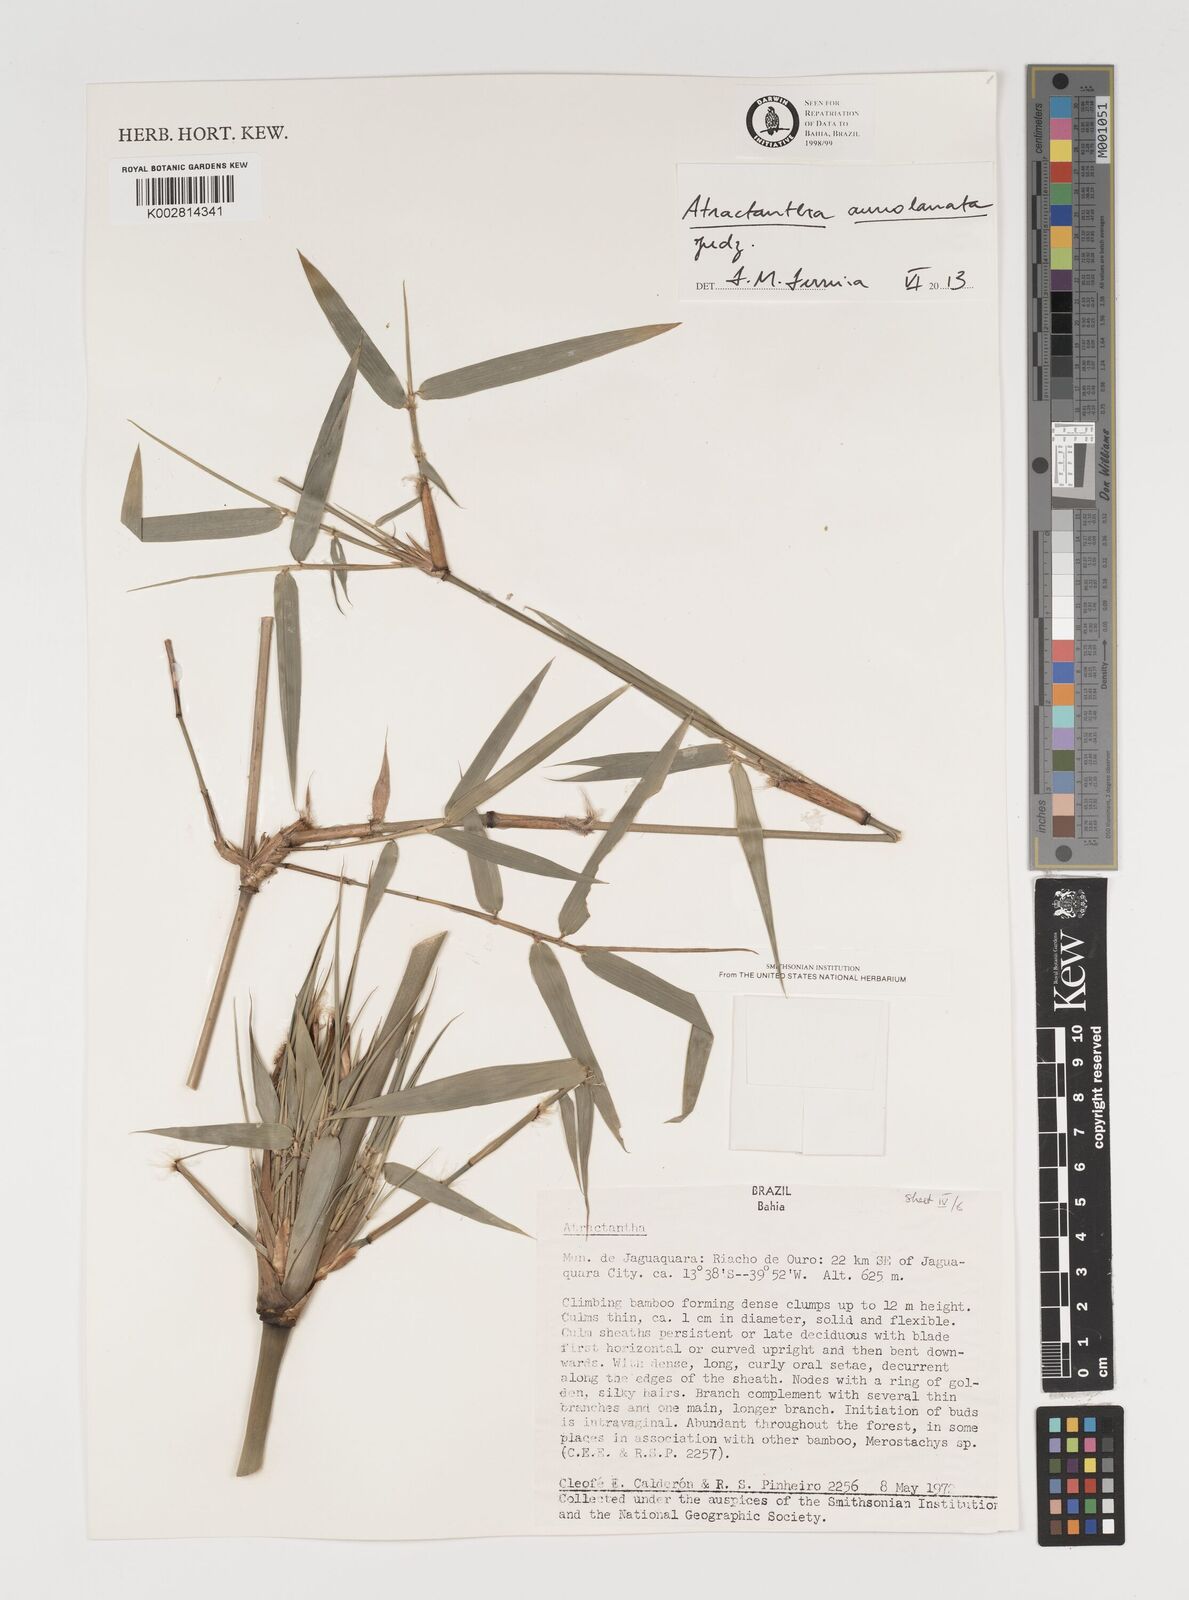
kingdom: Plantae
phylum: Tracheophyta
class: Liliopsida
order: Poales
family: Poaceae
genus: Atractantha
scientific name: Atractantha aureolanata
